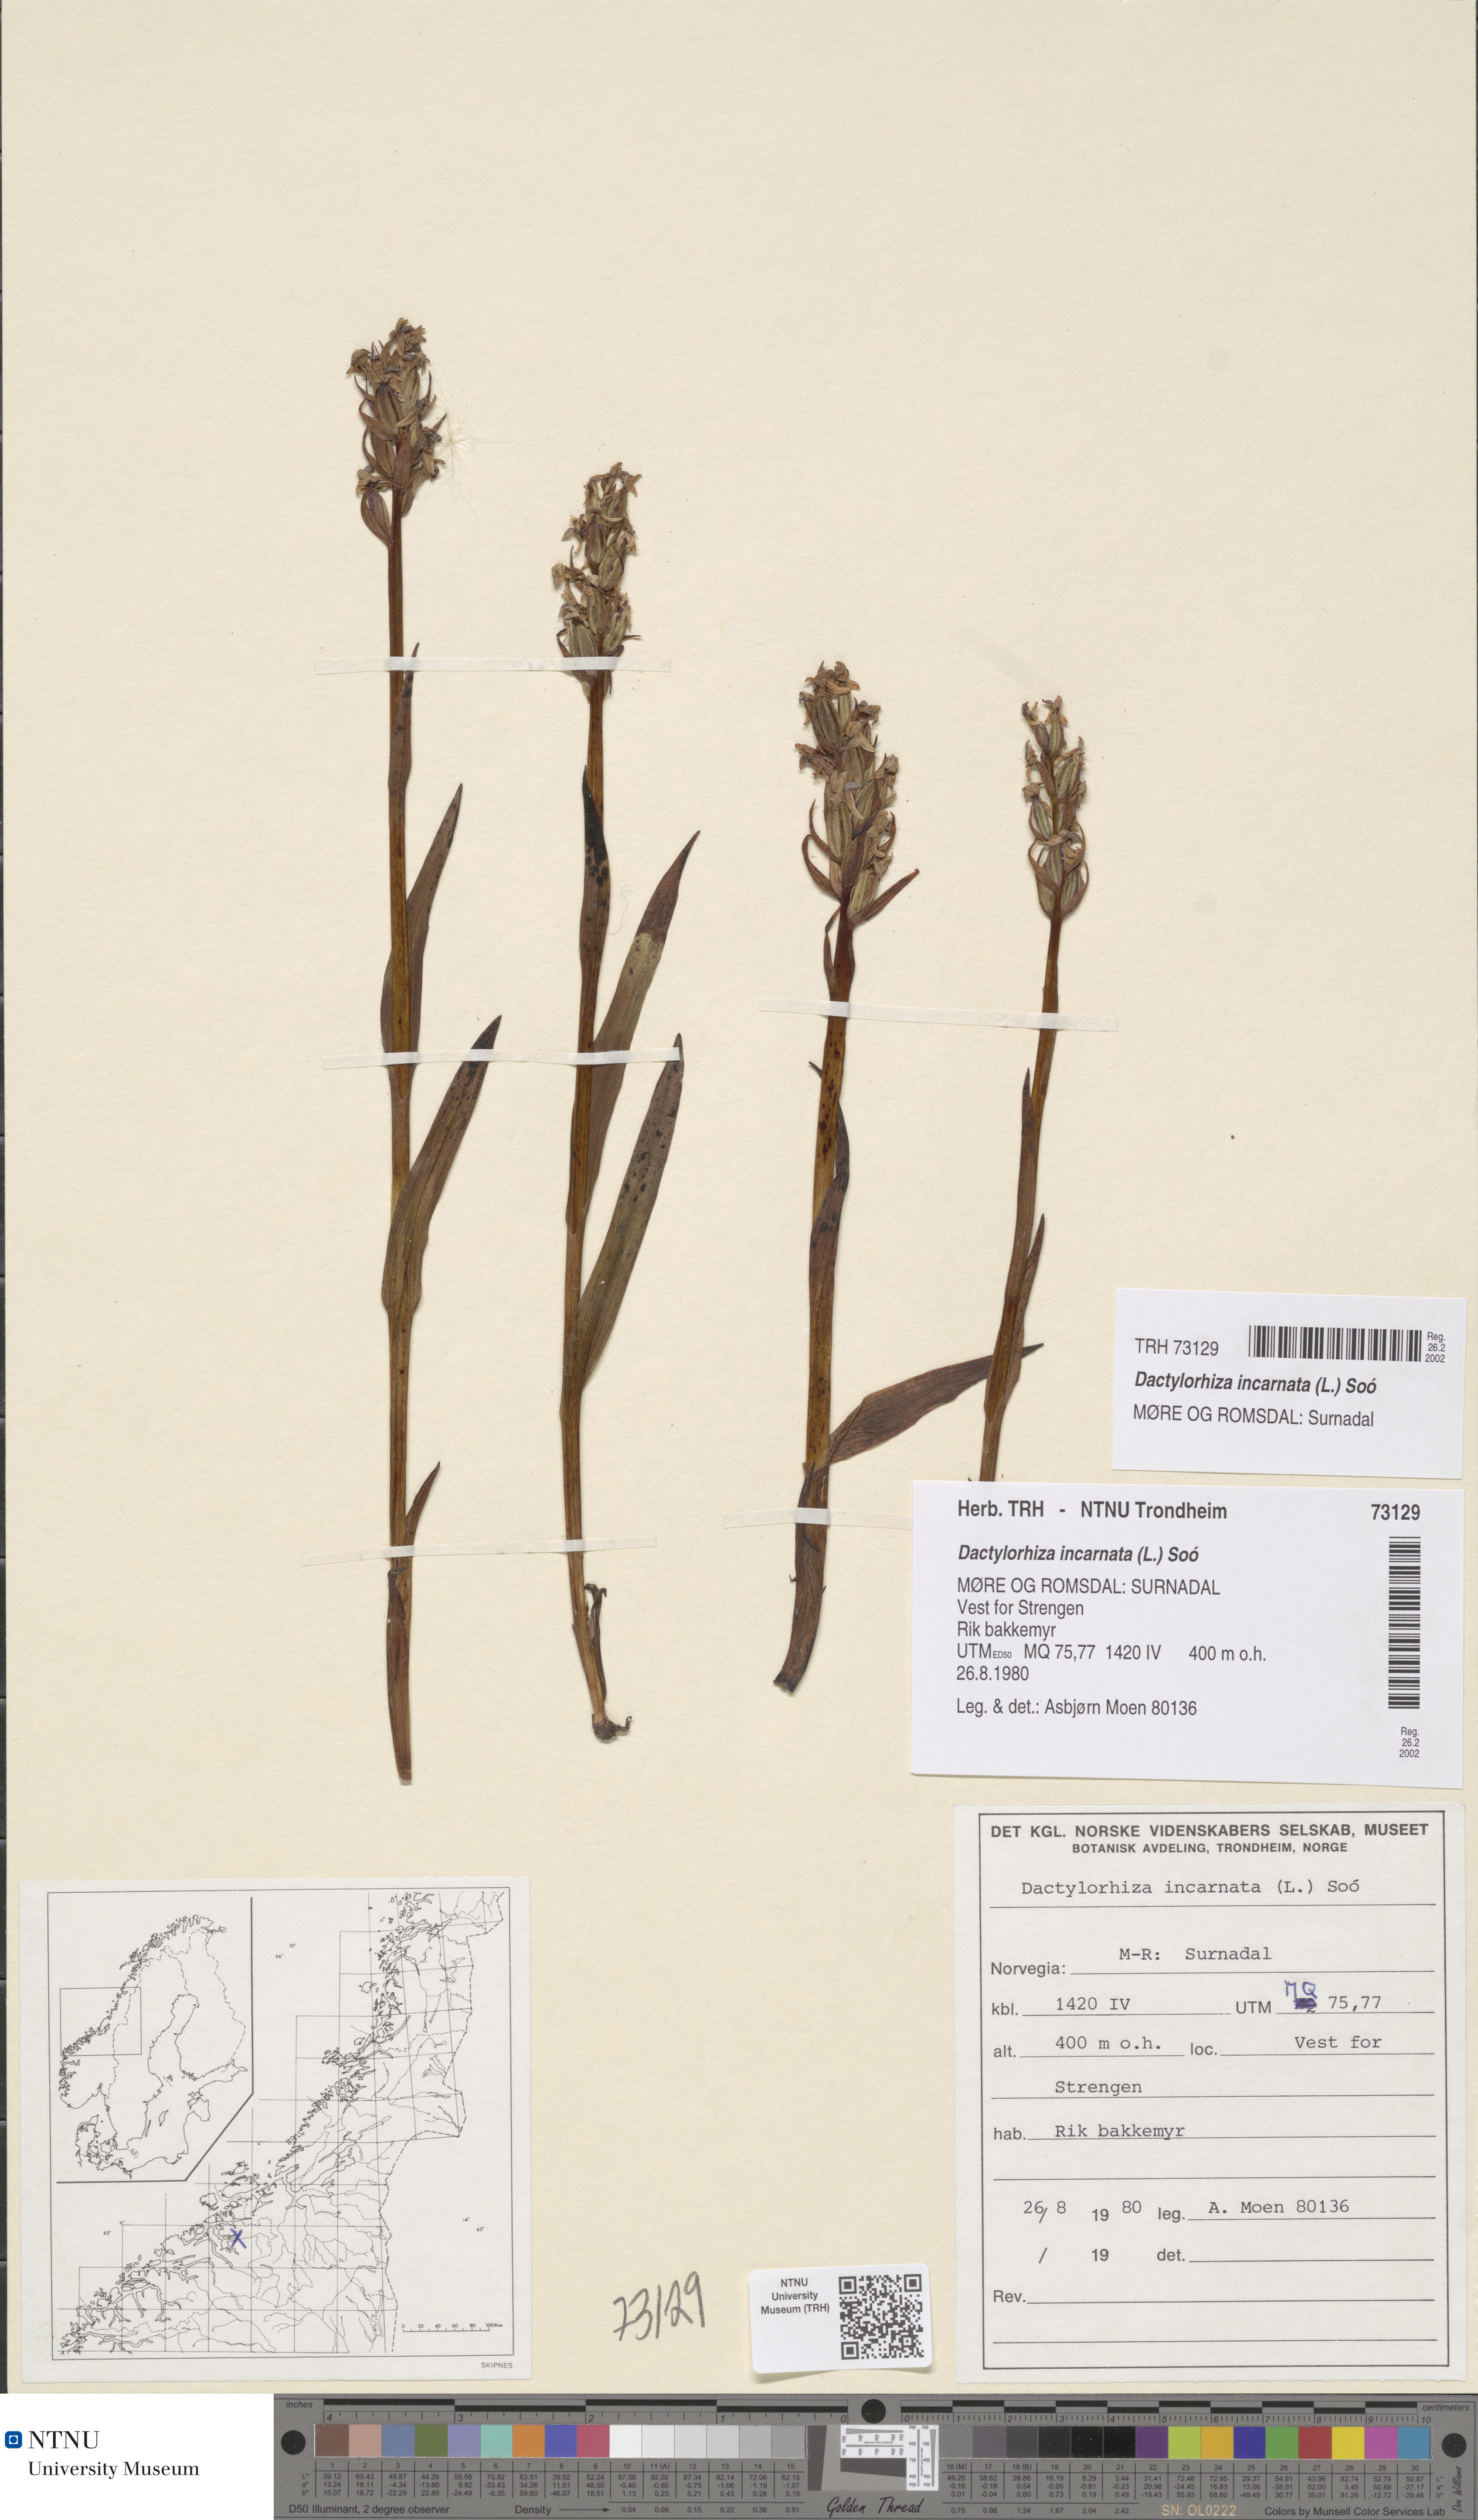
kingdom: Plantae
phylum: Tracheophyta
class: Liliopsida
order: Asparagales
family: Orchidaceae
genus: Dactylorhiza
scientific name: Dactylorhiza incarnata
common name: Early marsh-orchid
